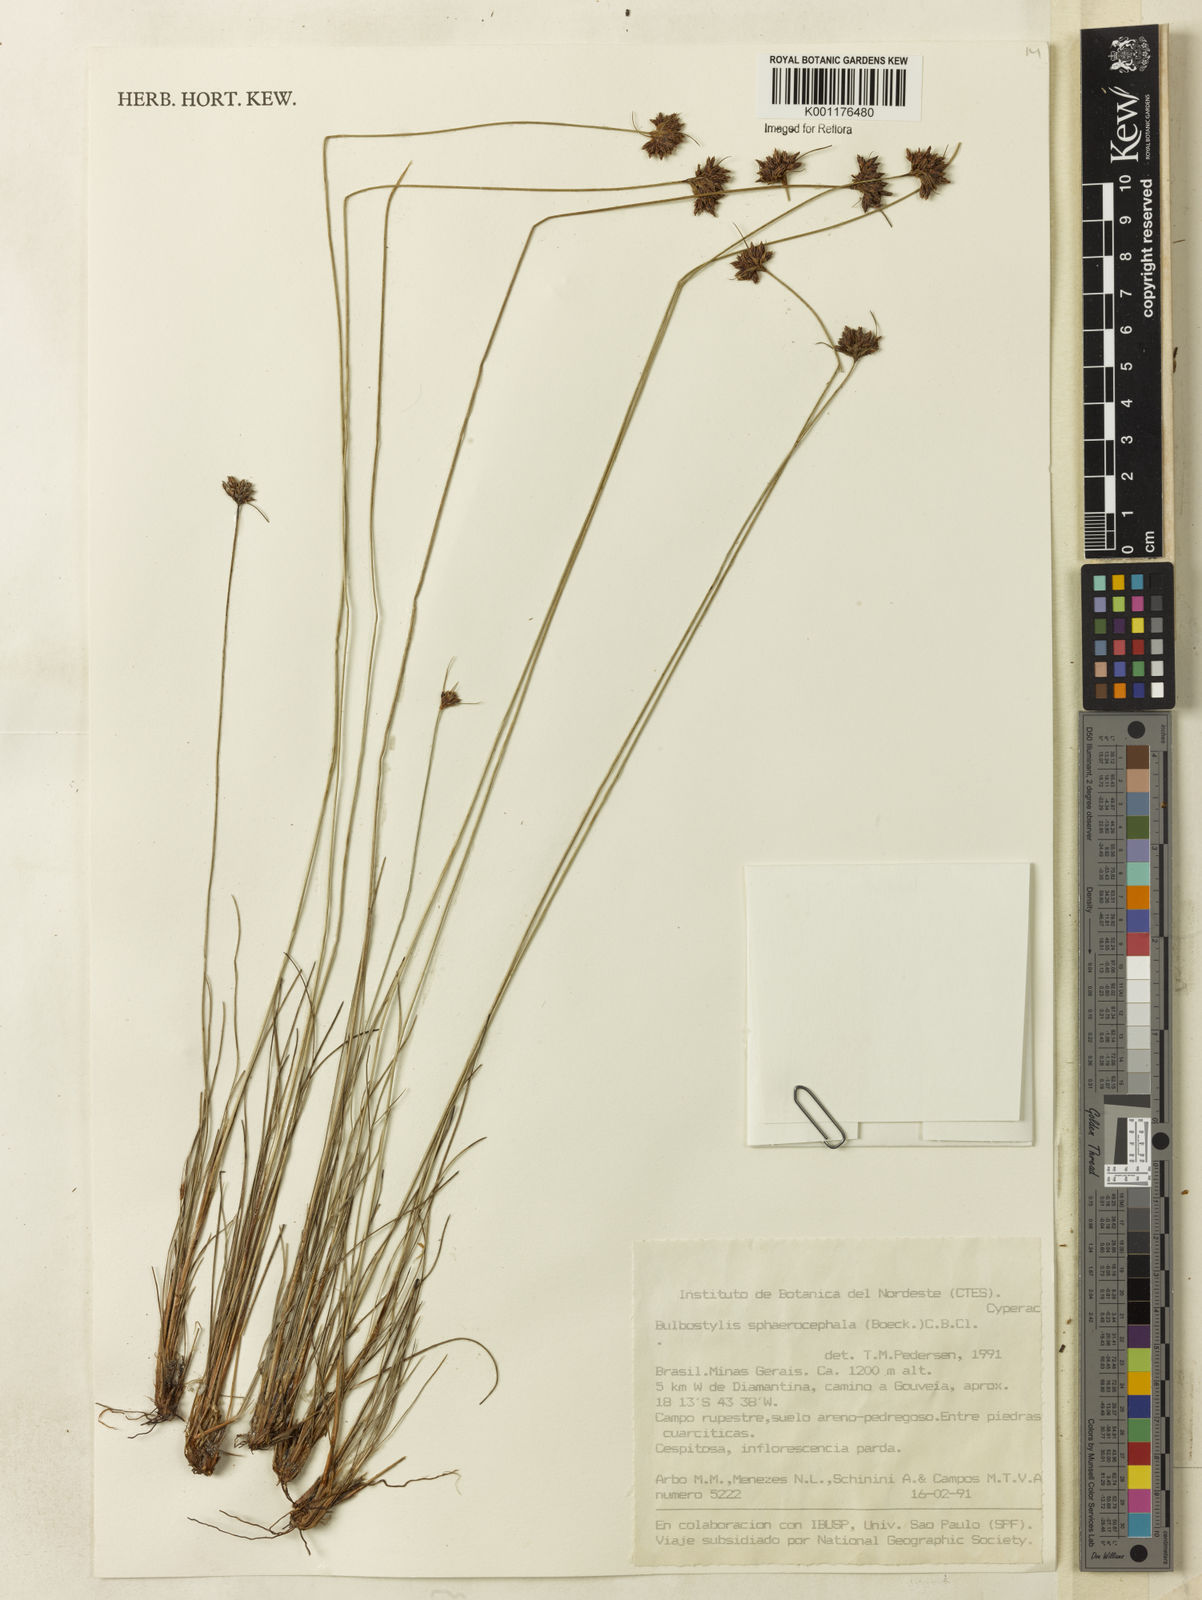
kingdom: Plantae
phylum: Tracheophyta
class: Liliopsida
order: Poales
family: Cyperaceae
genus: Bulbostylis
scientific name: Bulbostylis
